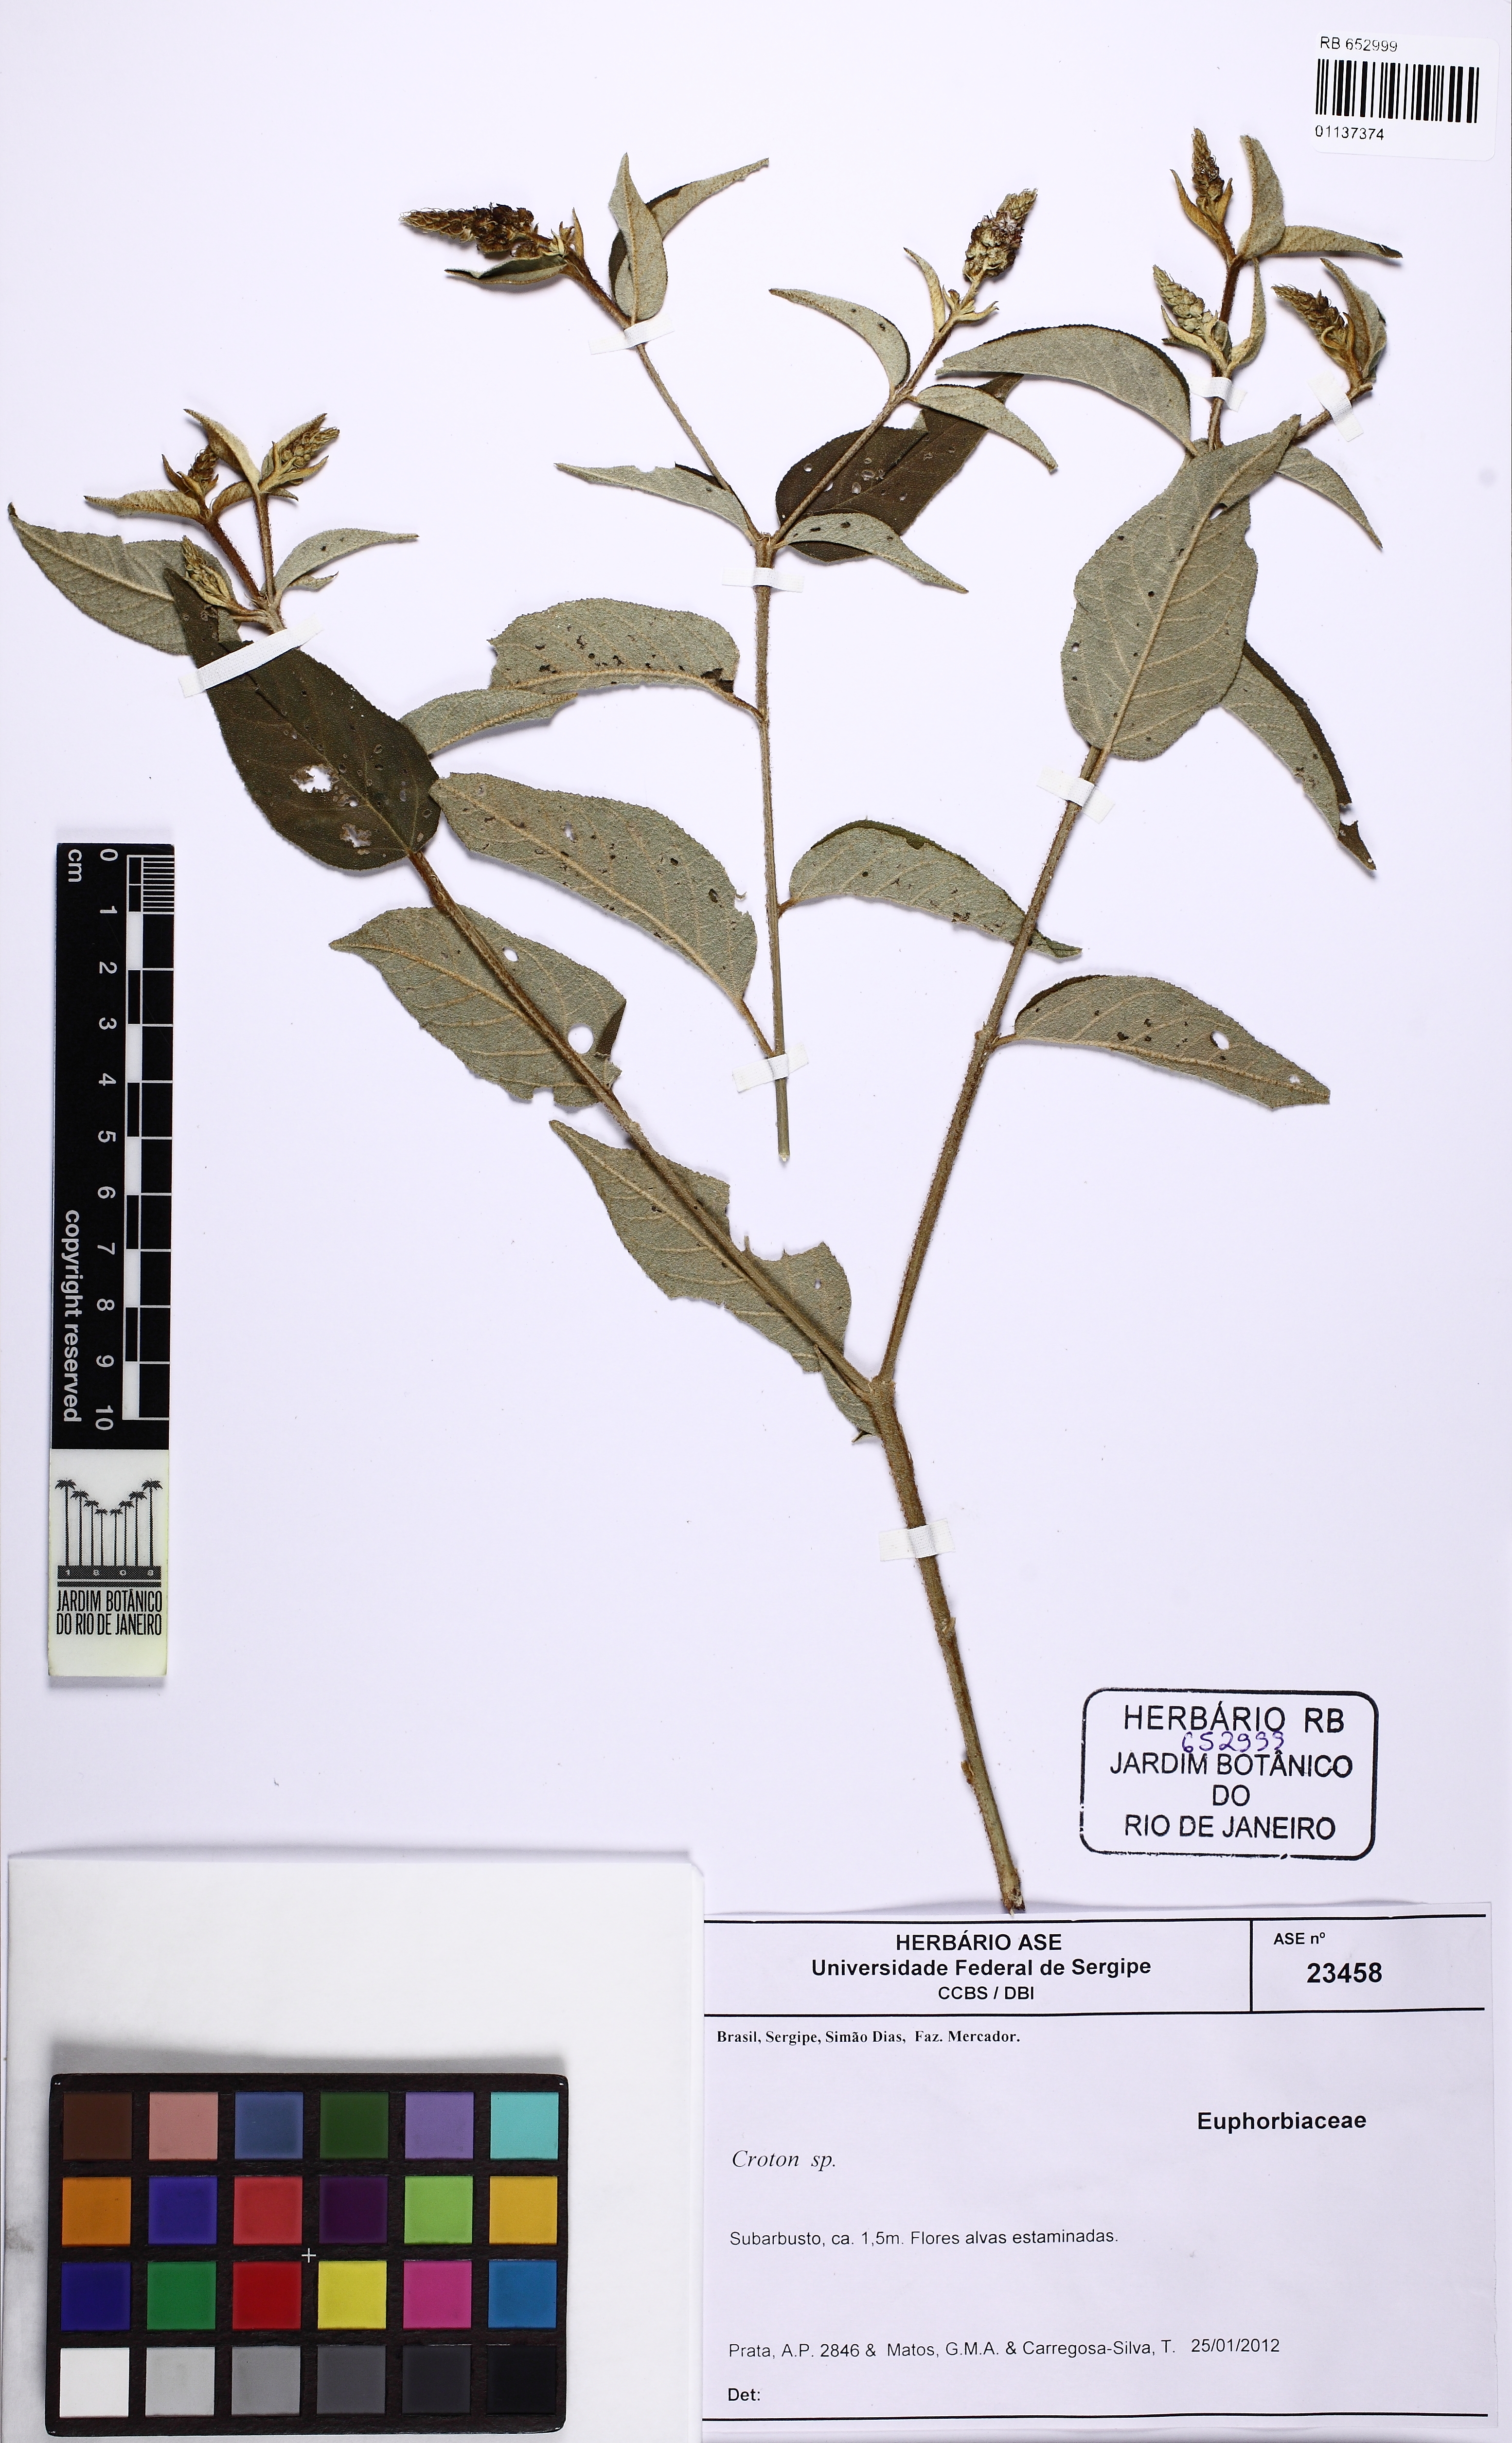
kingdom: Plantae
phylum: Tracheophyta
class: Magnoliopsida
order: Malpighiales
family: Euphorbiaceae
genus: Croton
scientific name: Croton triqueter
